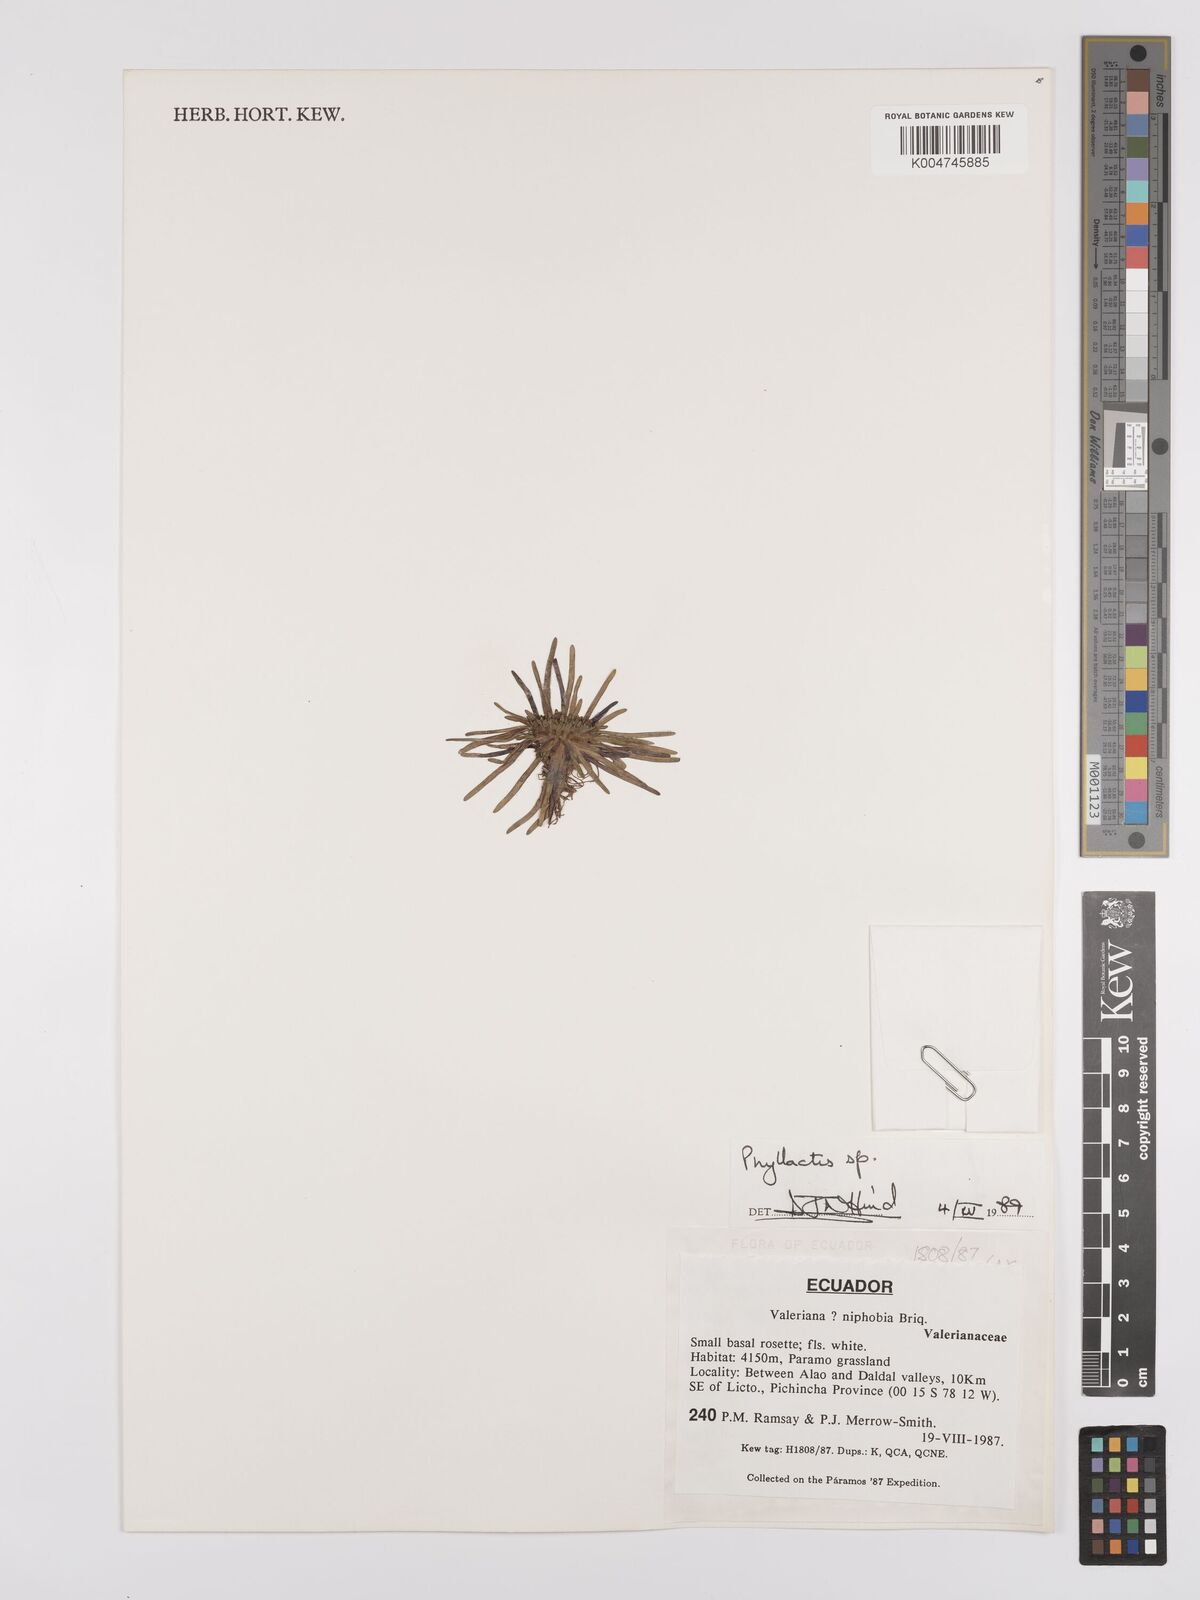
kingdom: Plantae
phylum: Tracheophyta
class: Magnoliopsida
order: Asterales
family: Asteraceae
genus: Phyllactis
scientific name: Phyllactis
